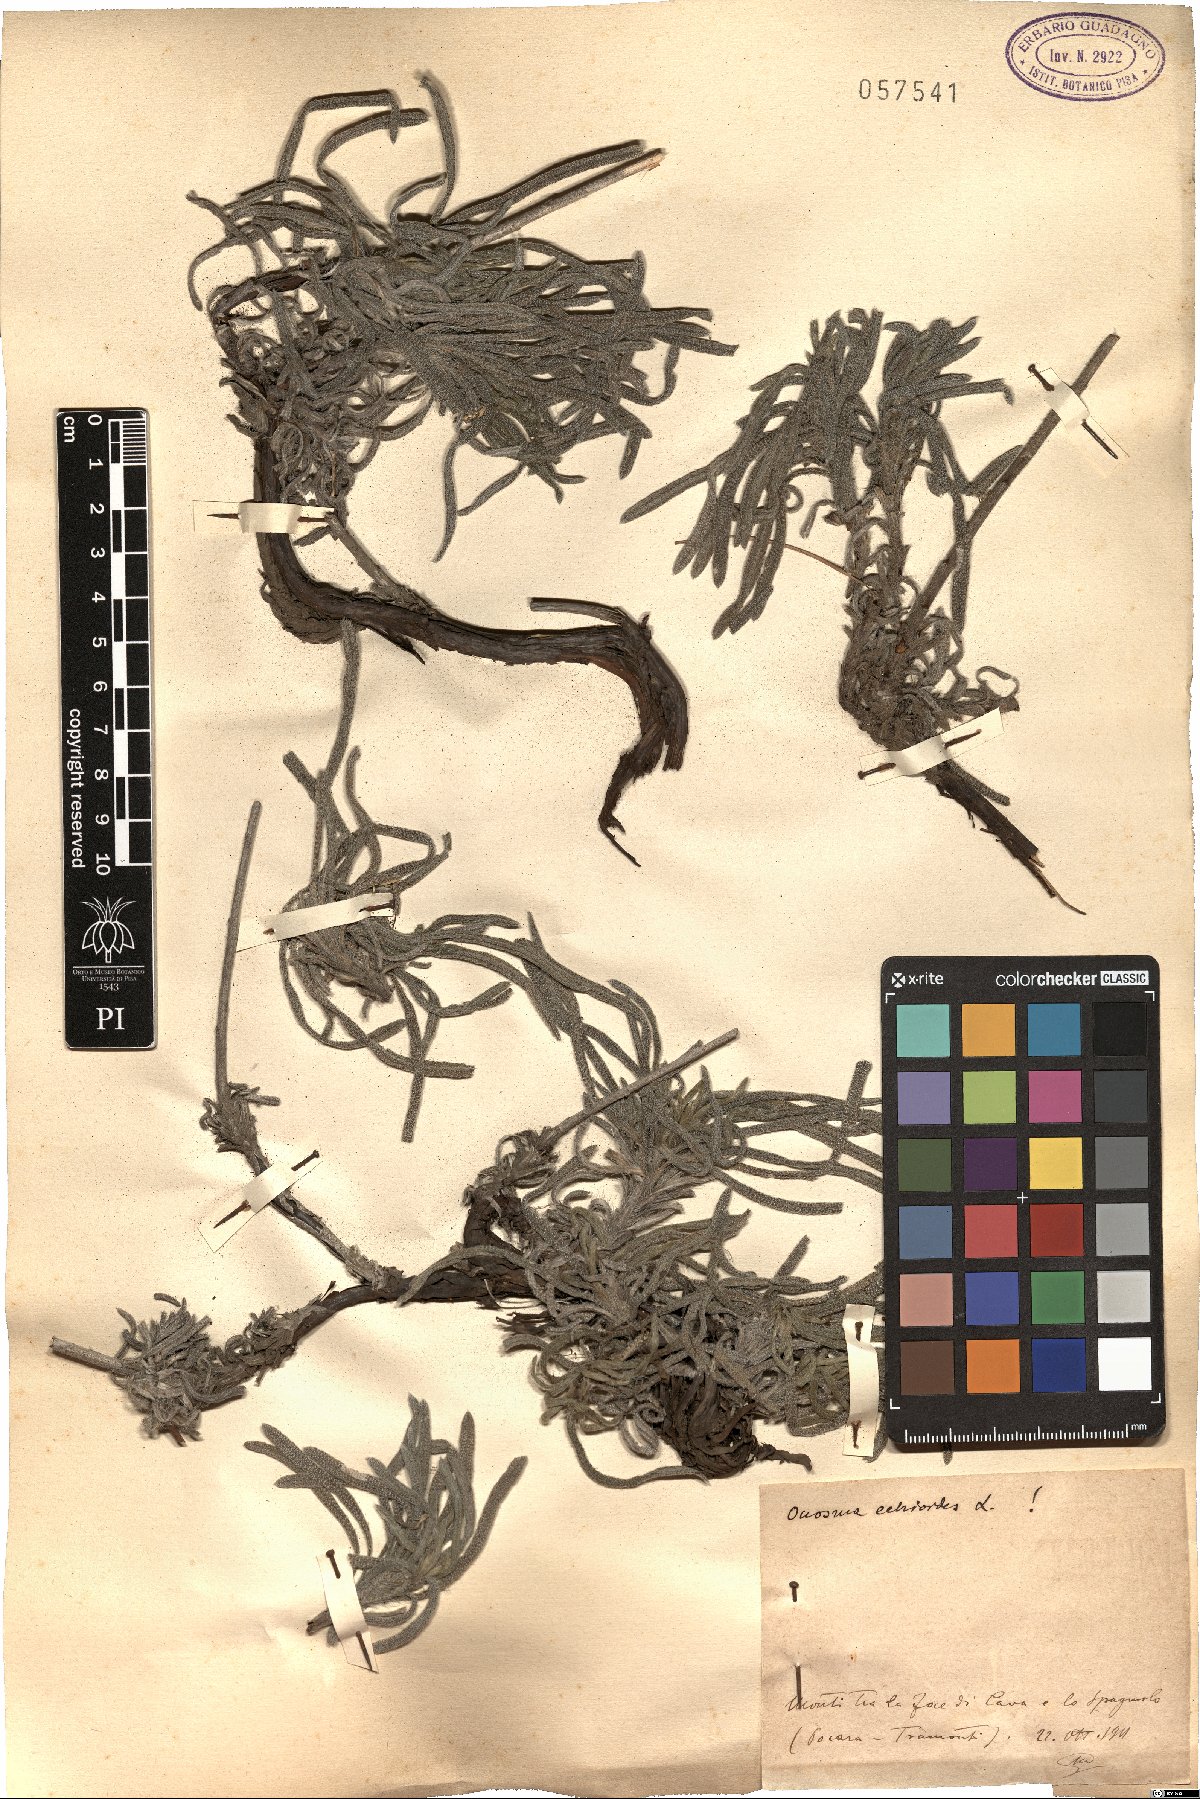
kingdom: Plantae
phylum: Tracheophyta
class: Magnoliopsida
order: Boraginales
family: Boraginaceae
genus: Onosma
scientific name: Onosma echioides
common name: Goldendrop
